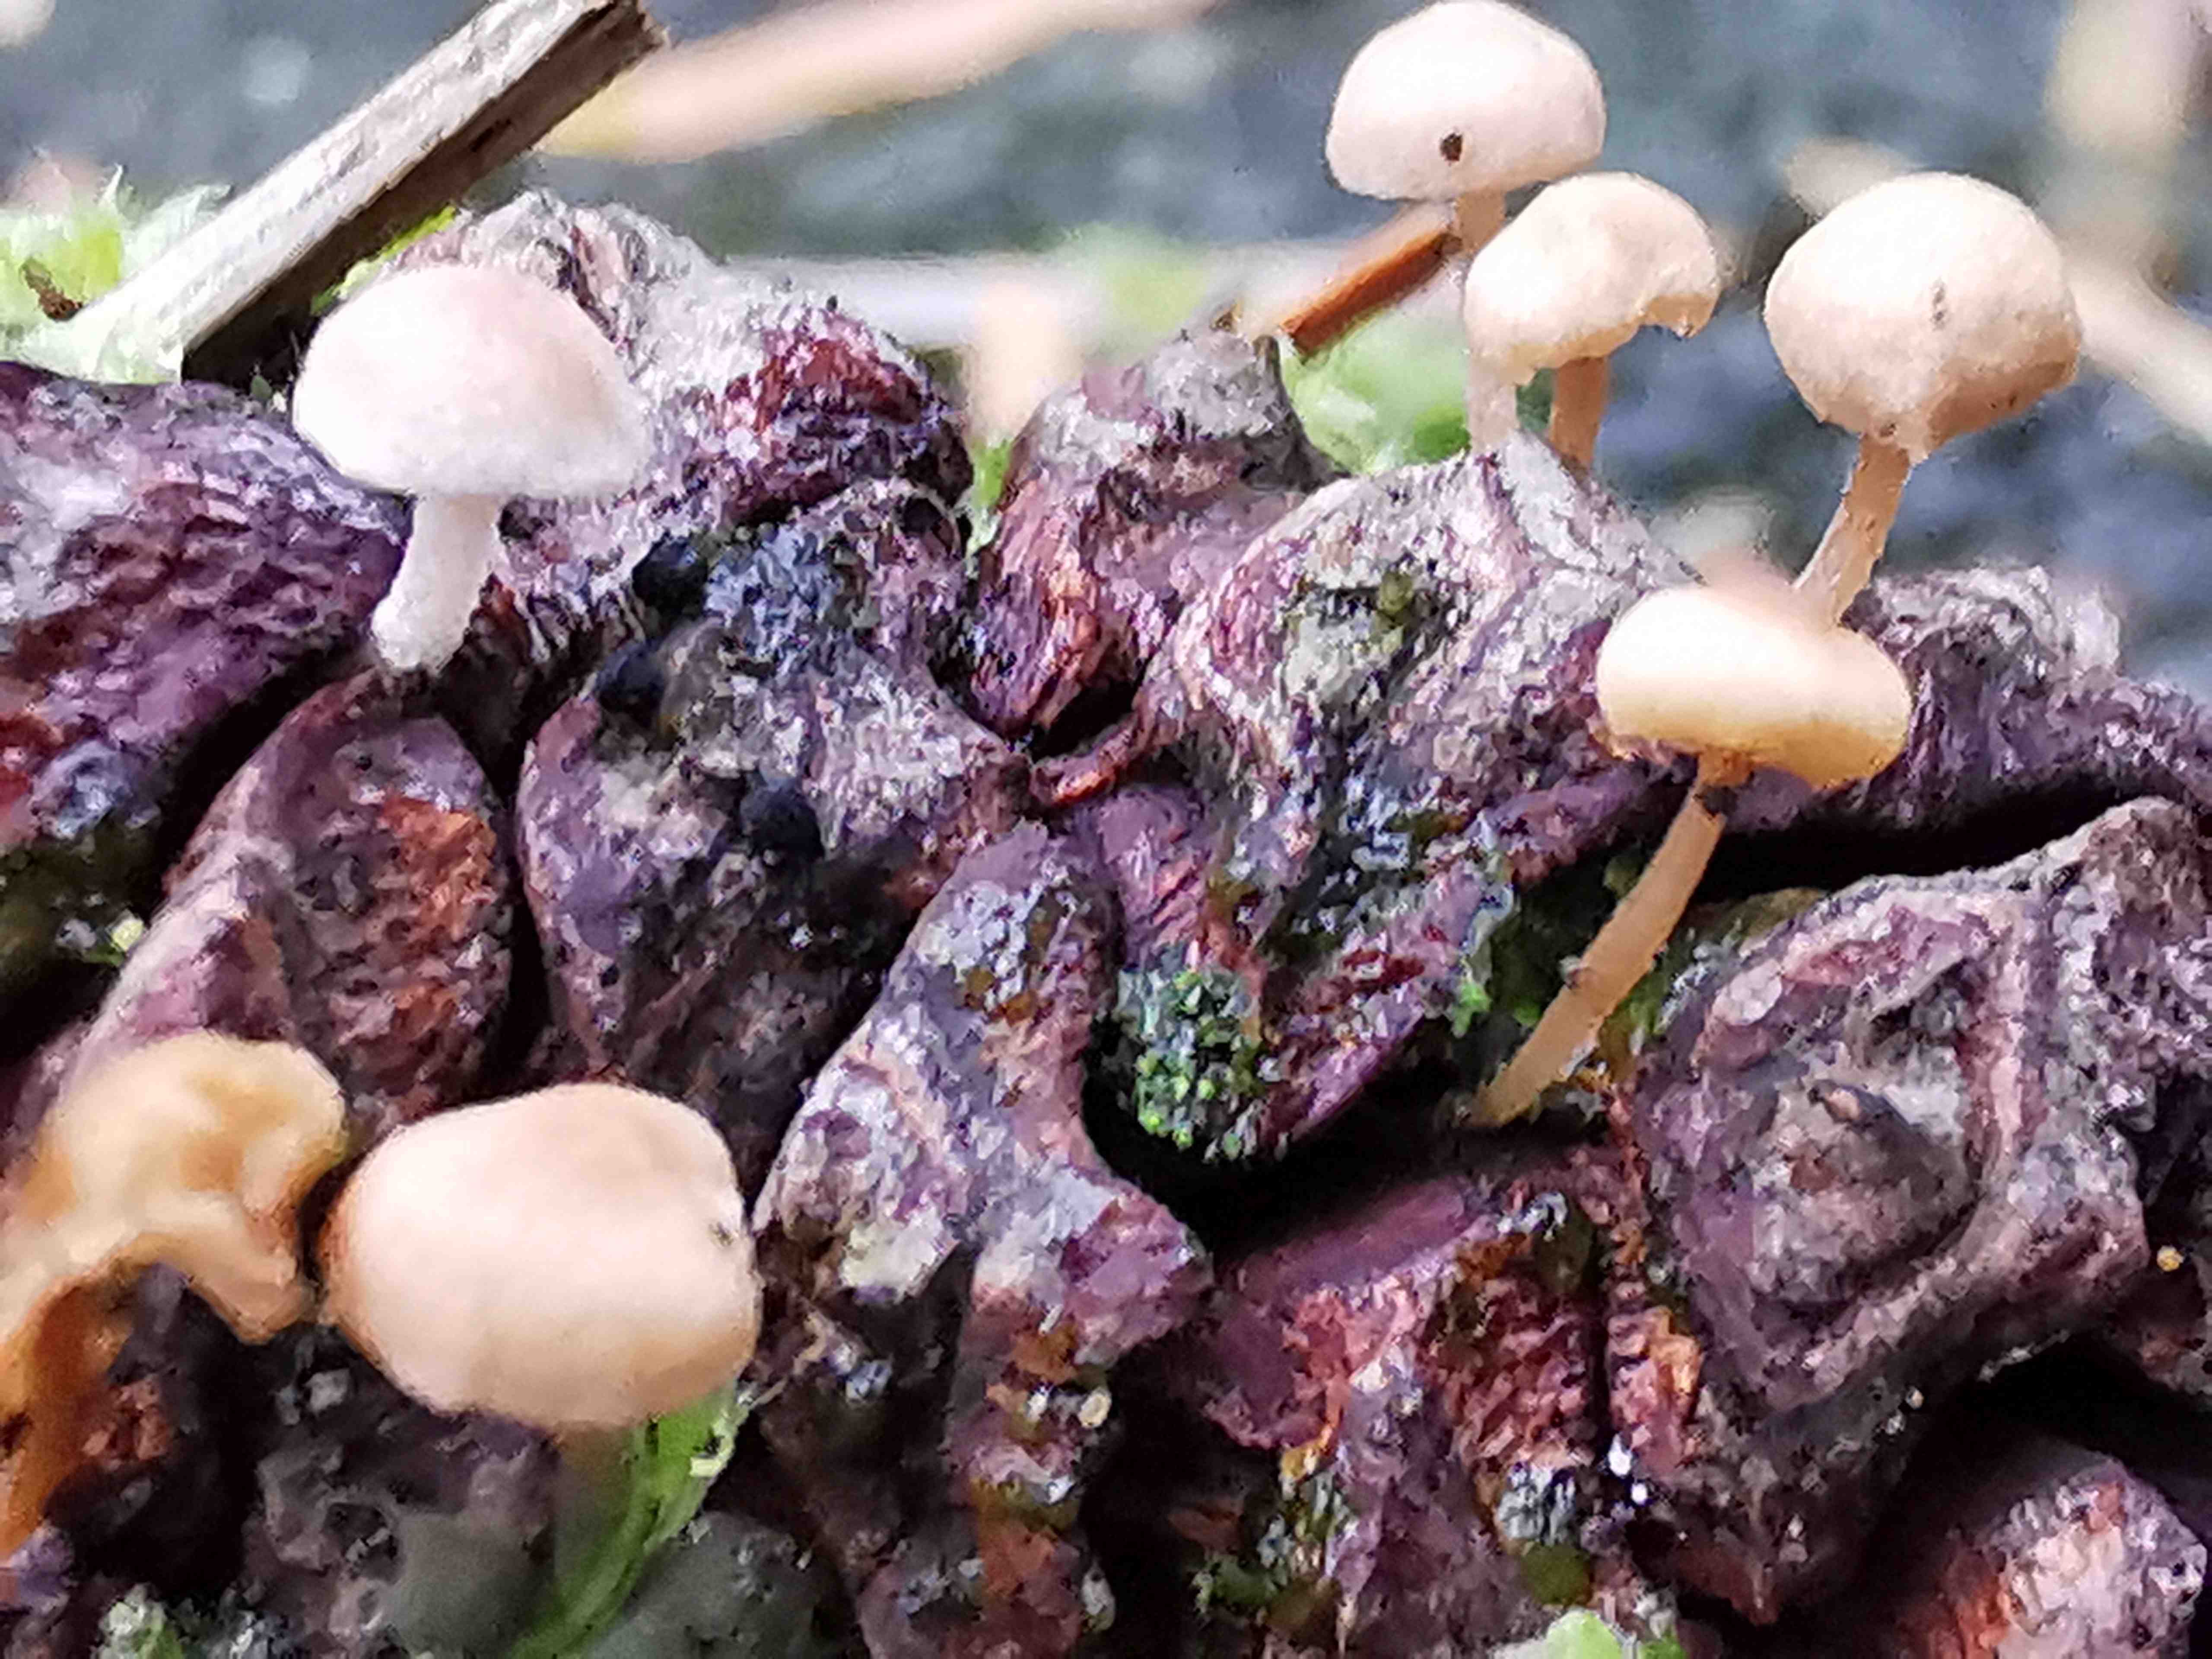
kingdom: Fungi
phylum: Basidiomycota
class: Agaricomycetes
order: Agaricales
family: Marasmiaceae
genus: Baeospora
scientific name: Baeospora myosura
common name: koglebruskhat
